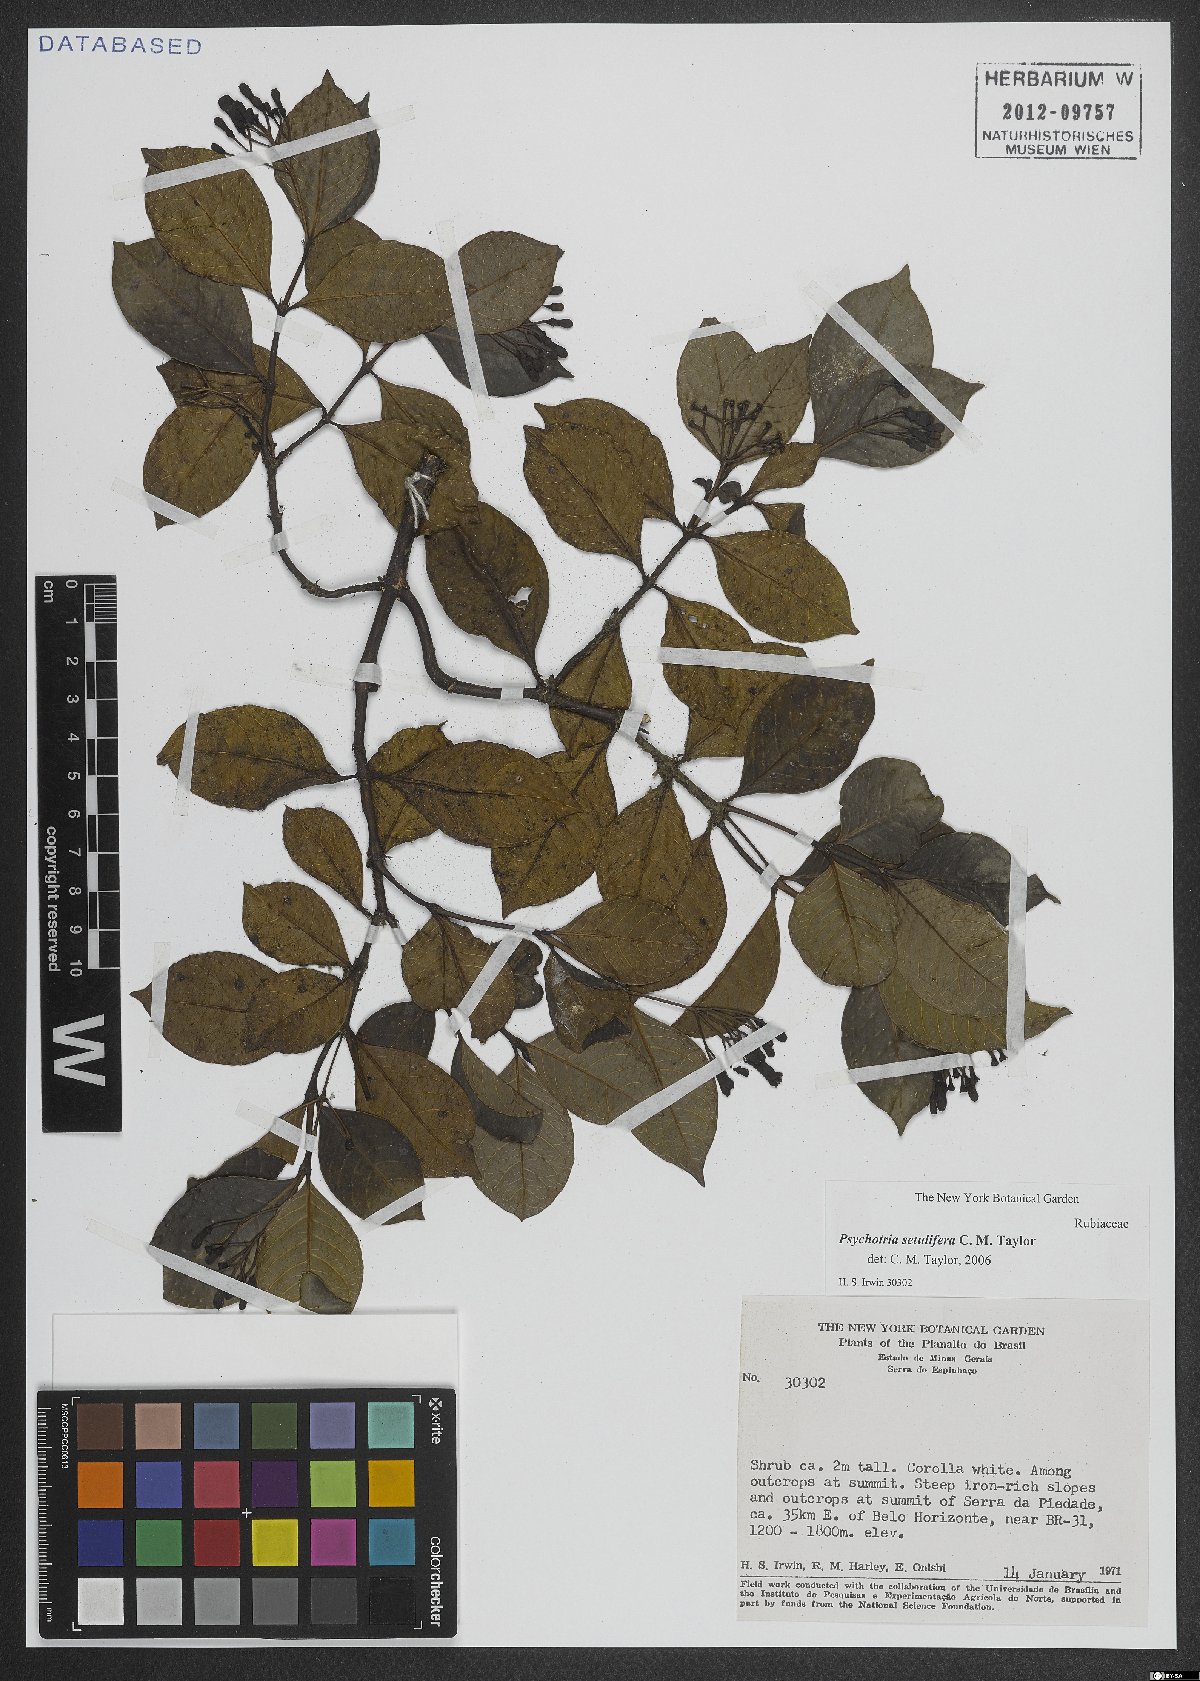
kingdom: Plantae
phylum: Tracheophyta
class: Magnoliopsida
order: Gentianales
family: Rubiaceae
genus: Psychotria
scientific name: Psychotria setulifera
